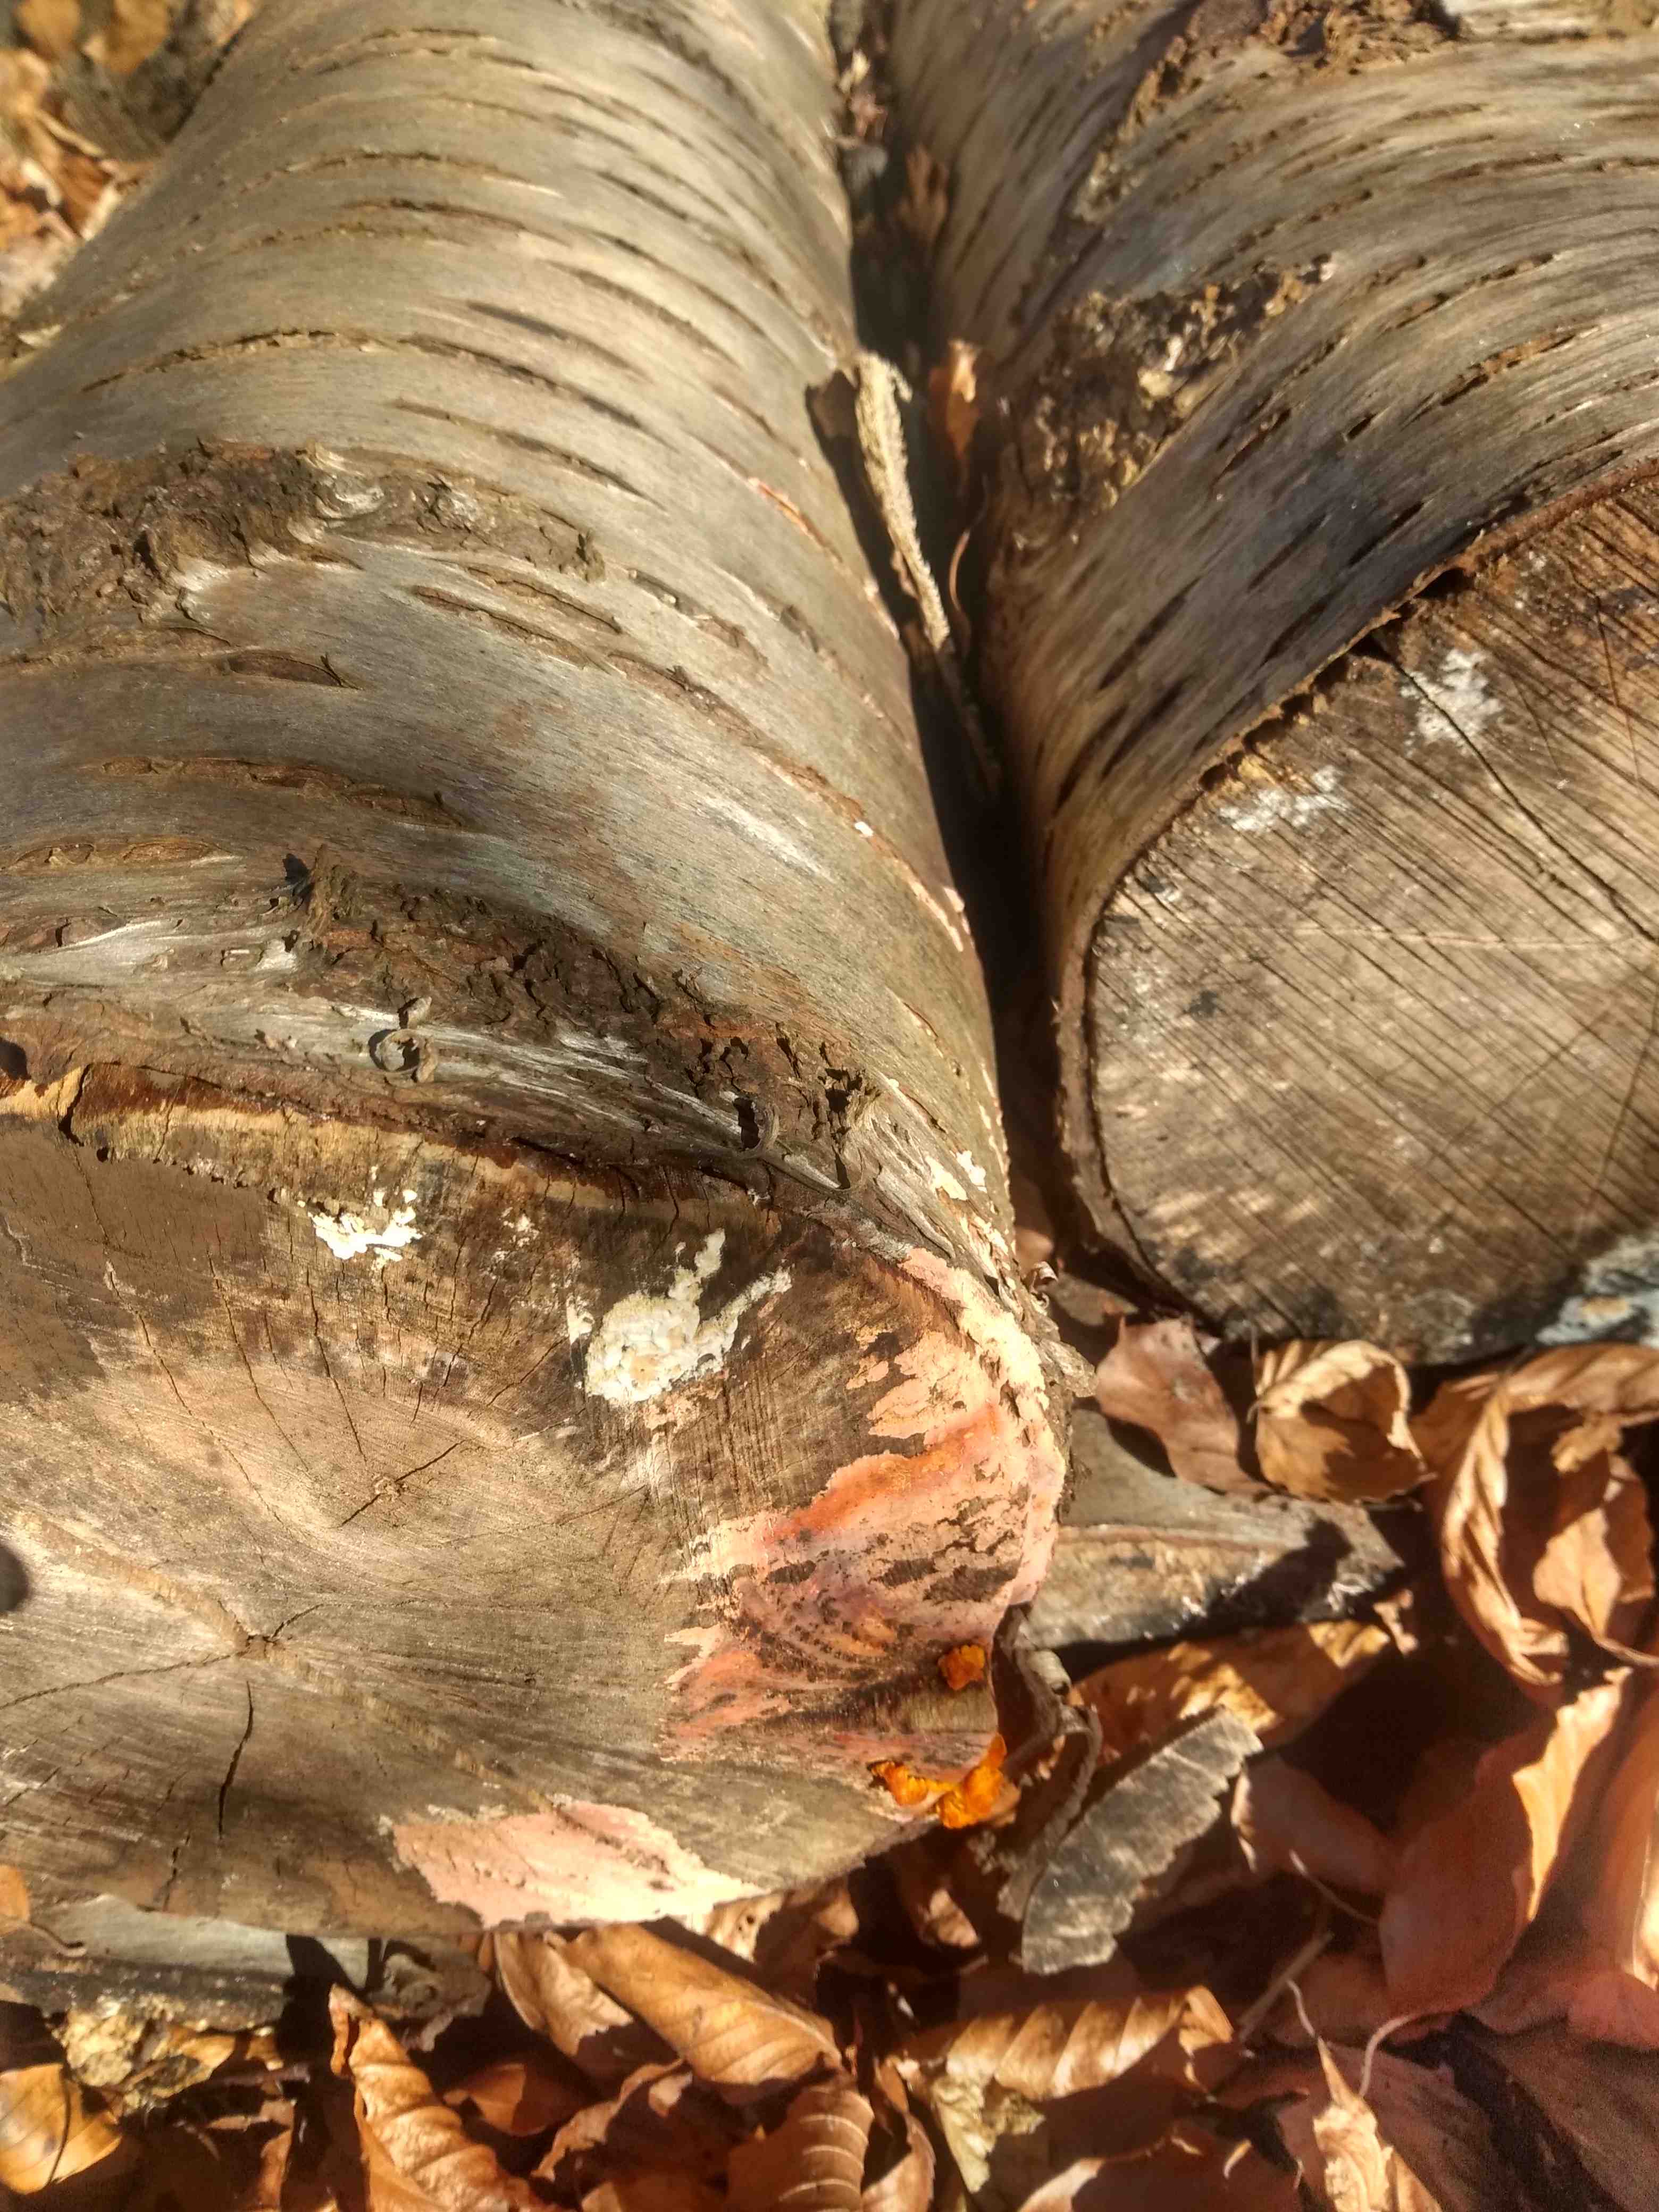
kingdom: Fungi
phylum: Basidiomycota
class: Tremellomycetes
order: Tremellales
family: Tremellaceae
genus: Tremella
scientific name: Tremella mesenterica
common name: gul bævresvamp
